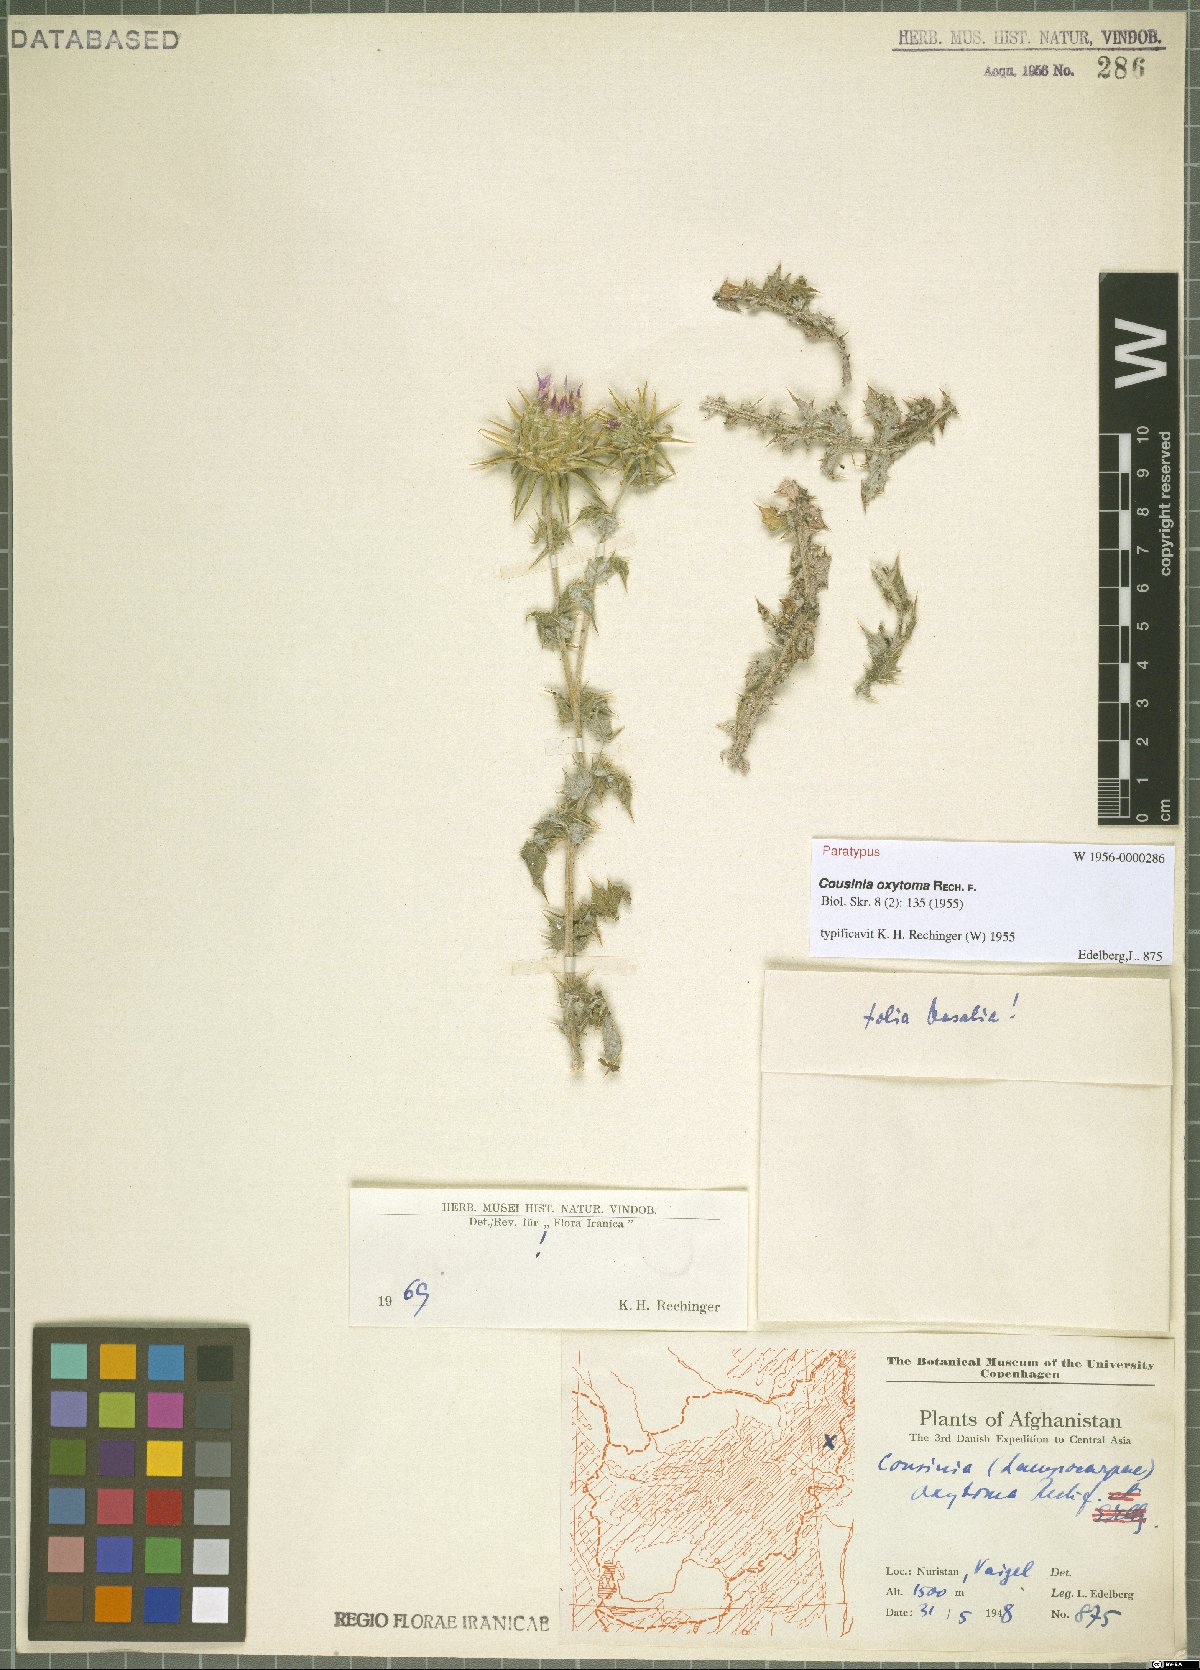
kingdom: Plantae
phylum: Tracheophyta
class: Magnoliopsida
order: Asterales
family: Asteraceae
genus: Cousinia
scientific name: Cousinia oxytoma
